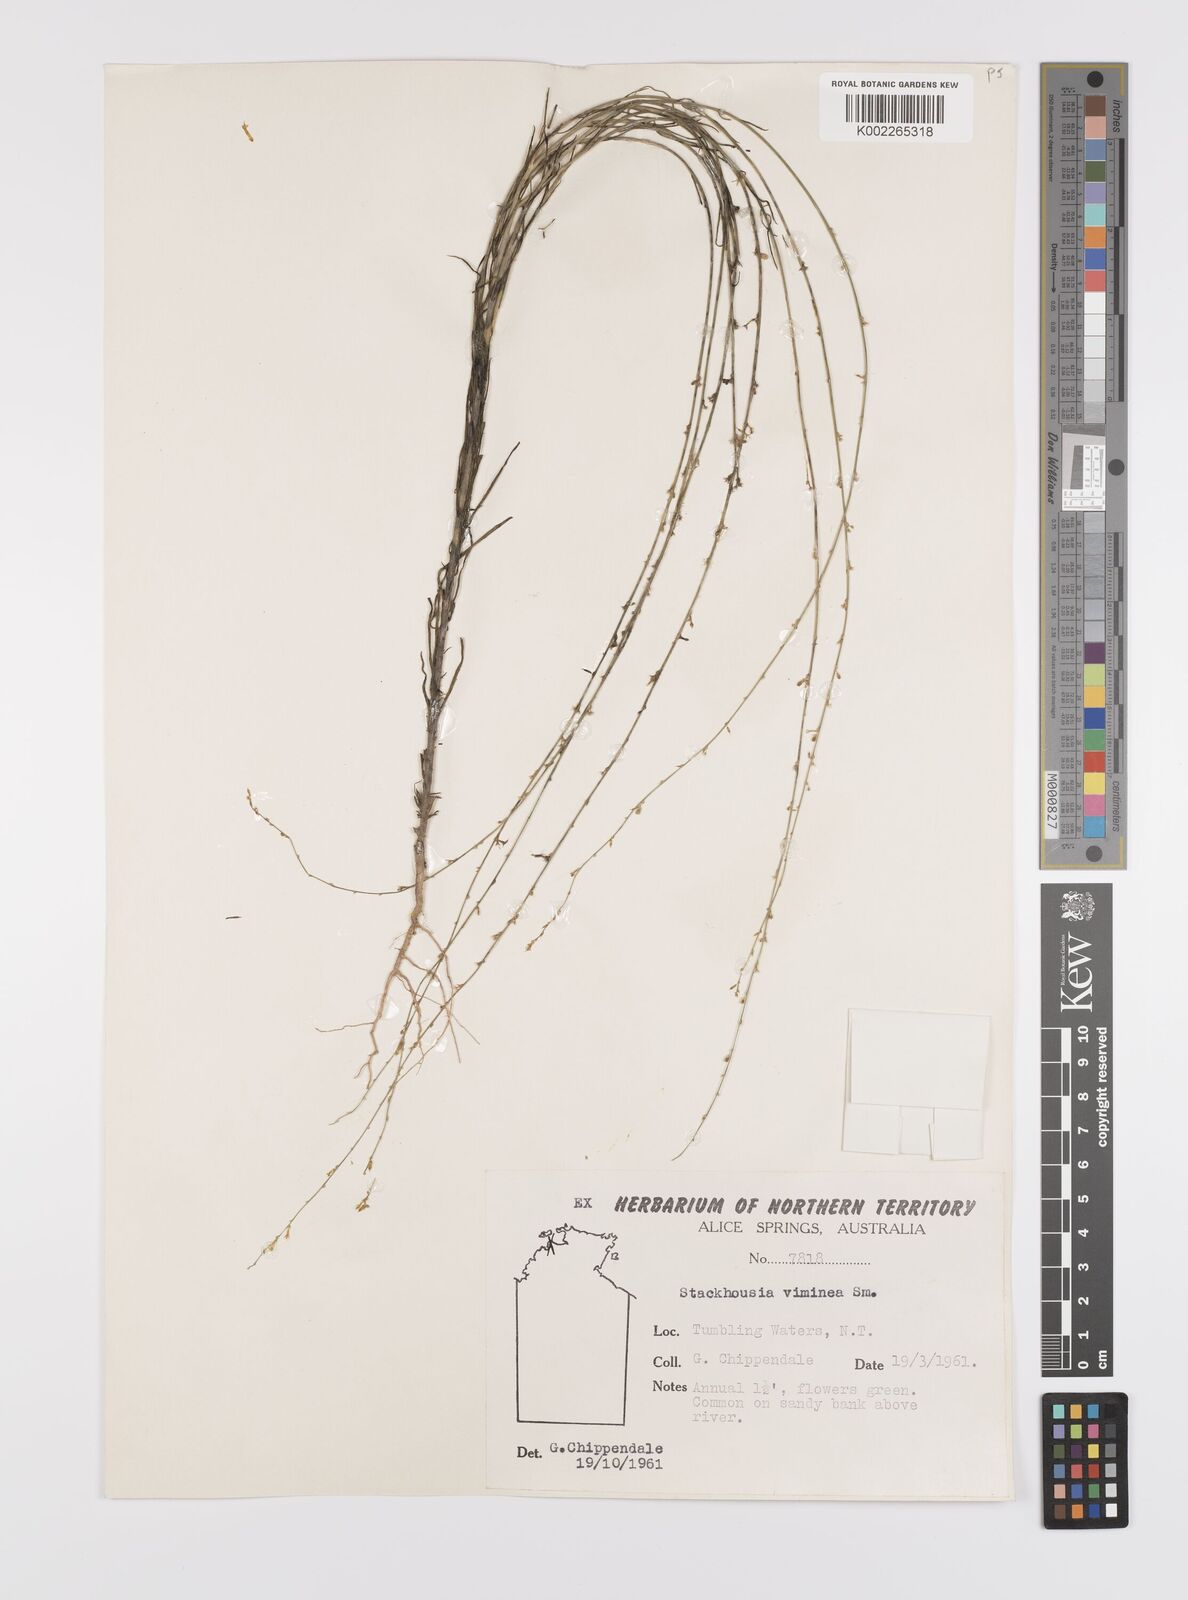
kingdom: Plantae
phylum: Tracheophyta
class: Magnoliopsida
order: Celastrales
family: Celastraceae
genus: Stackhousia
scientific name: Stackhousia viminea
